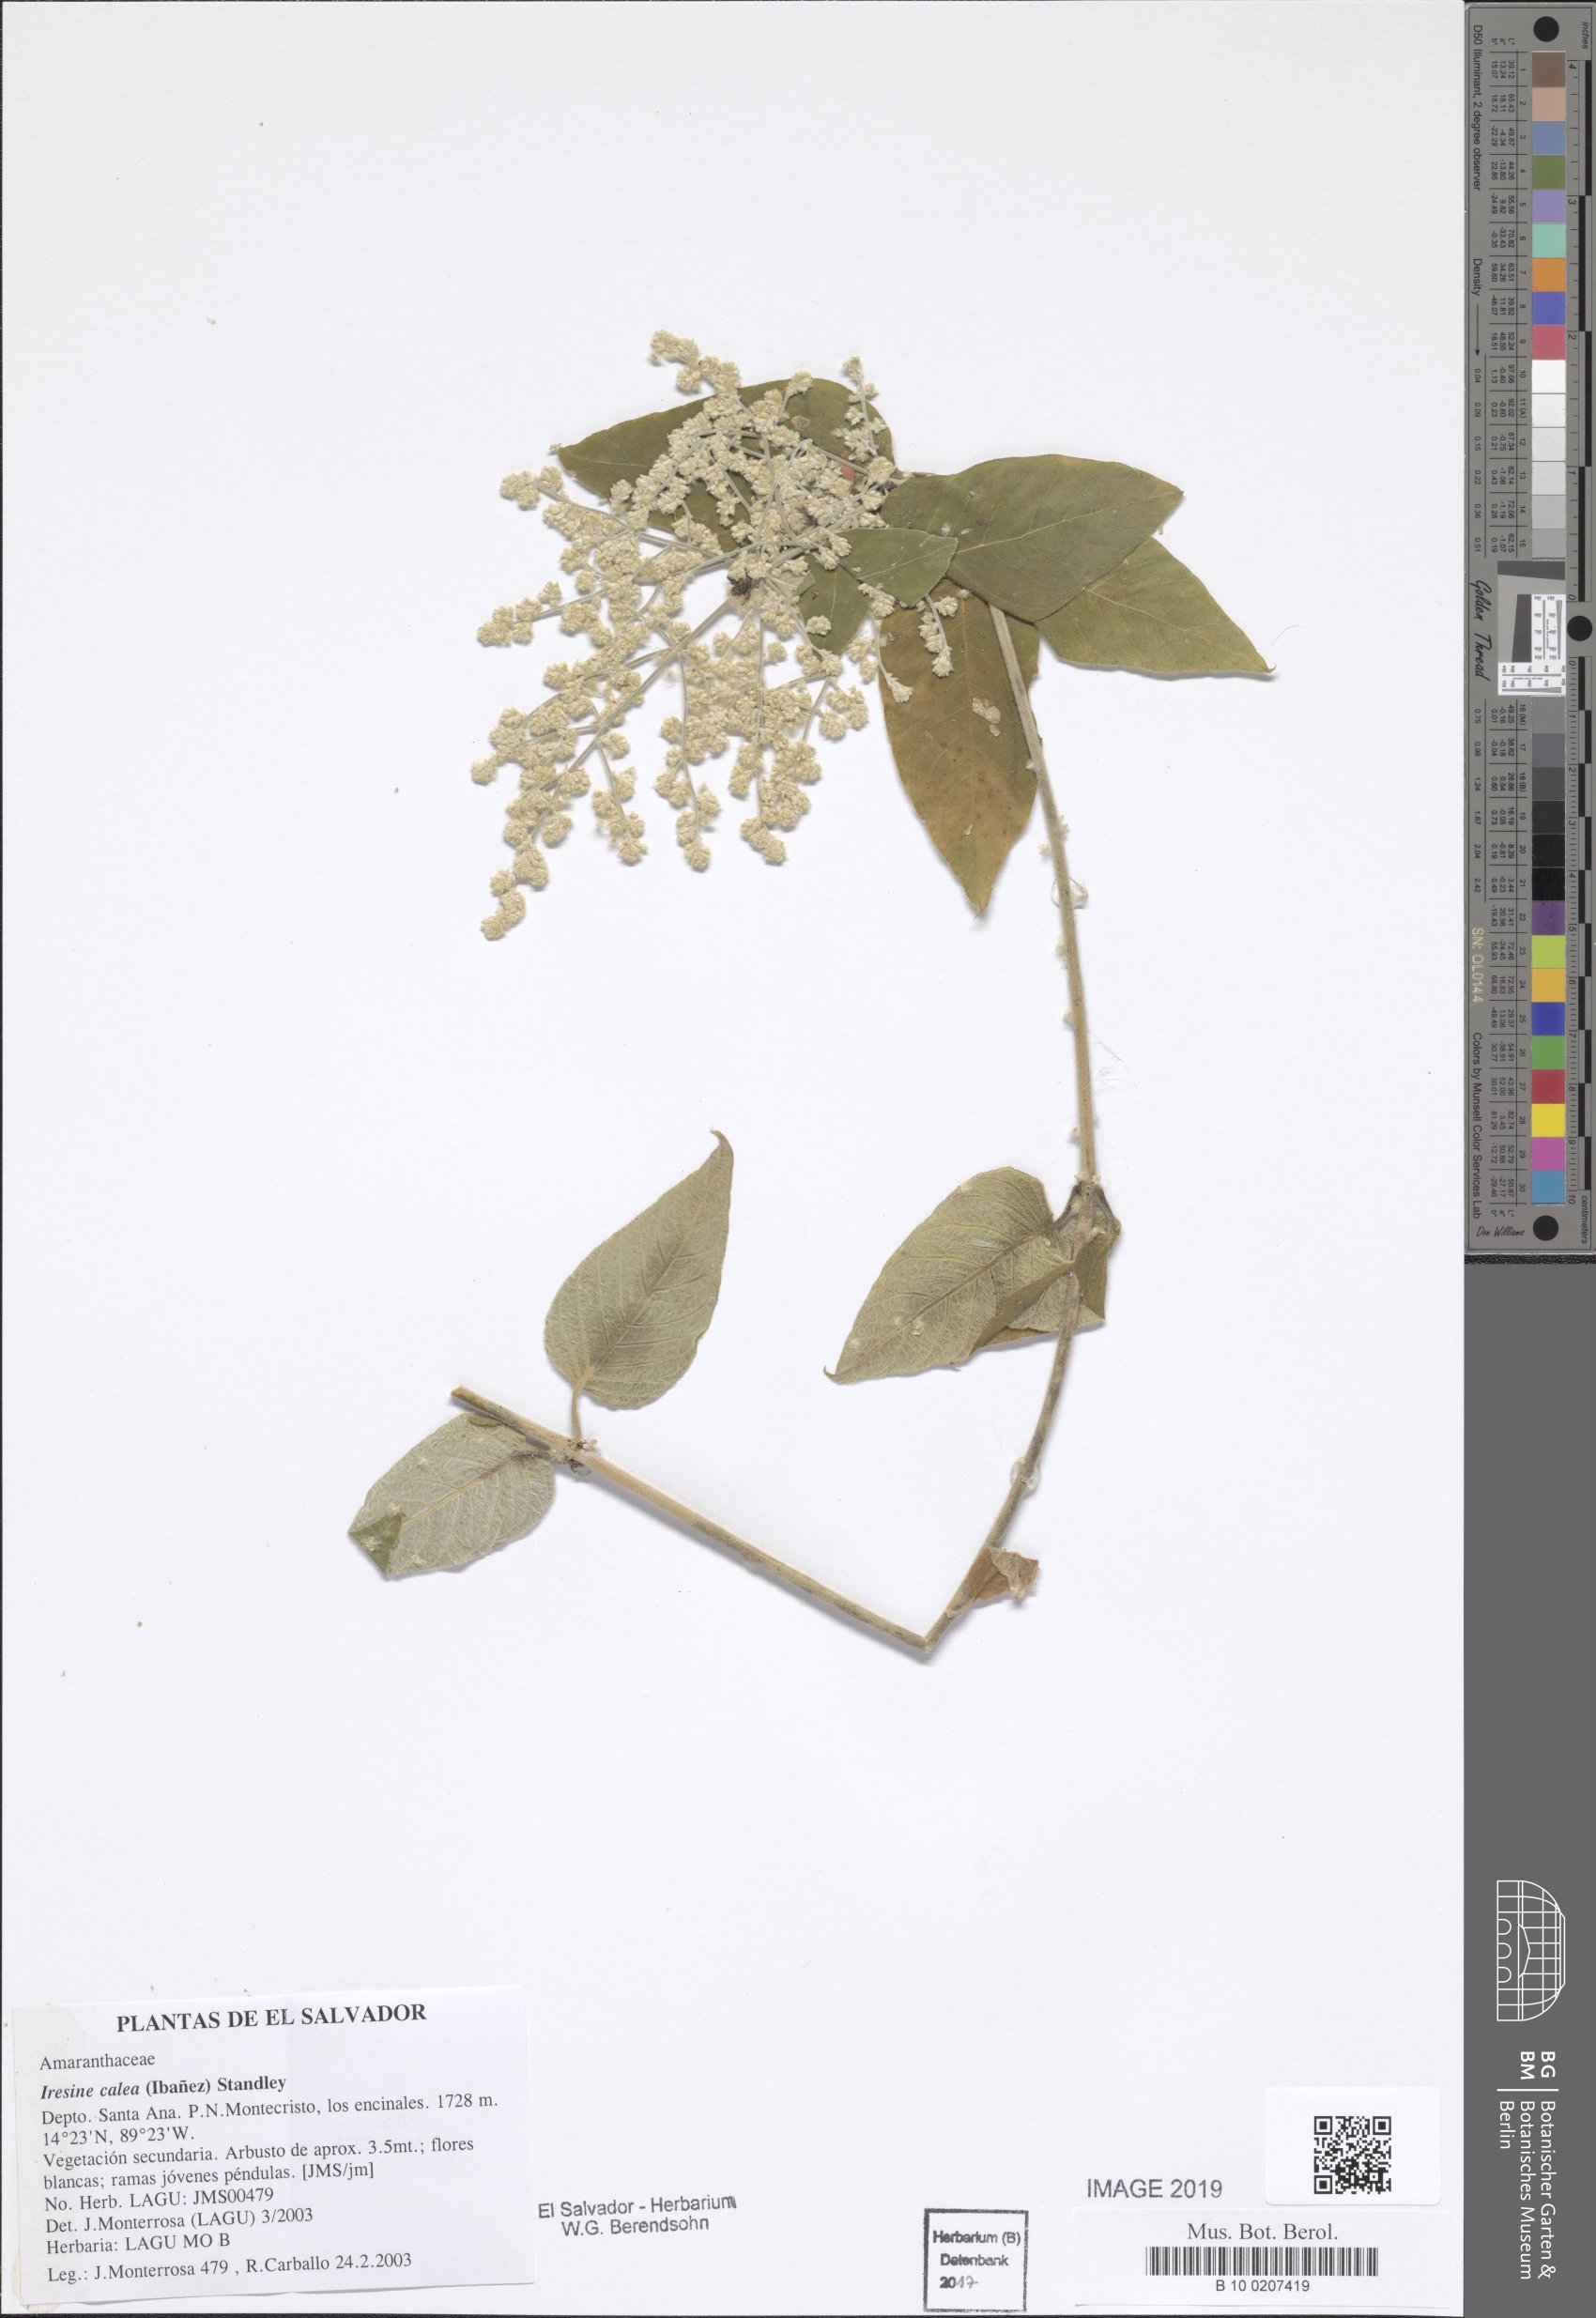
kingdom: Plantae
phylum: Tracheophyta
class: Magnoliopsida
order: Caryophyllales
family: Amaranthaceae
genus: Iresine
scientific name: Iresine latifolia
